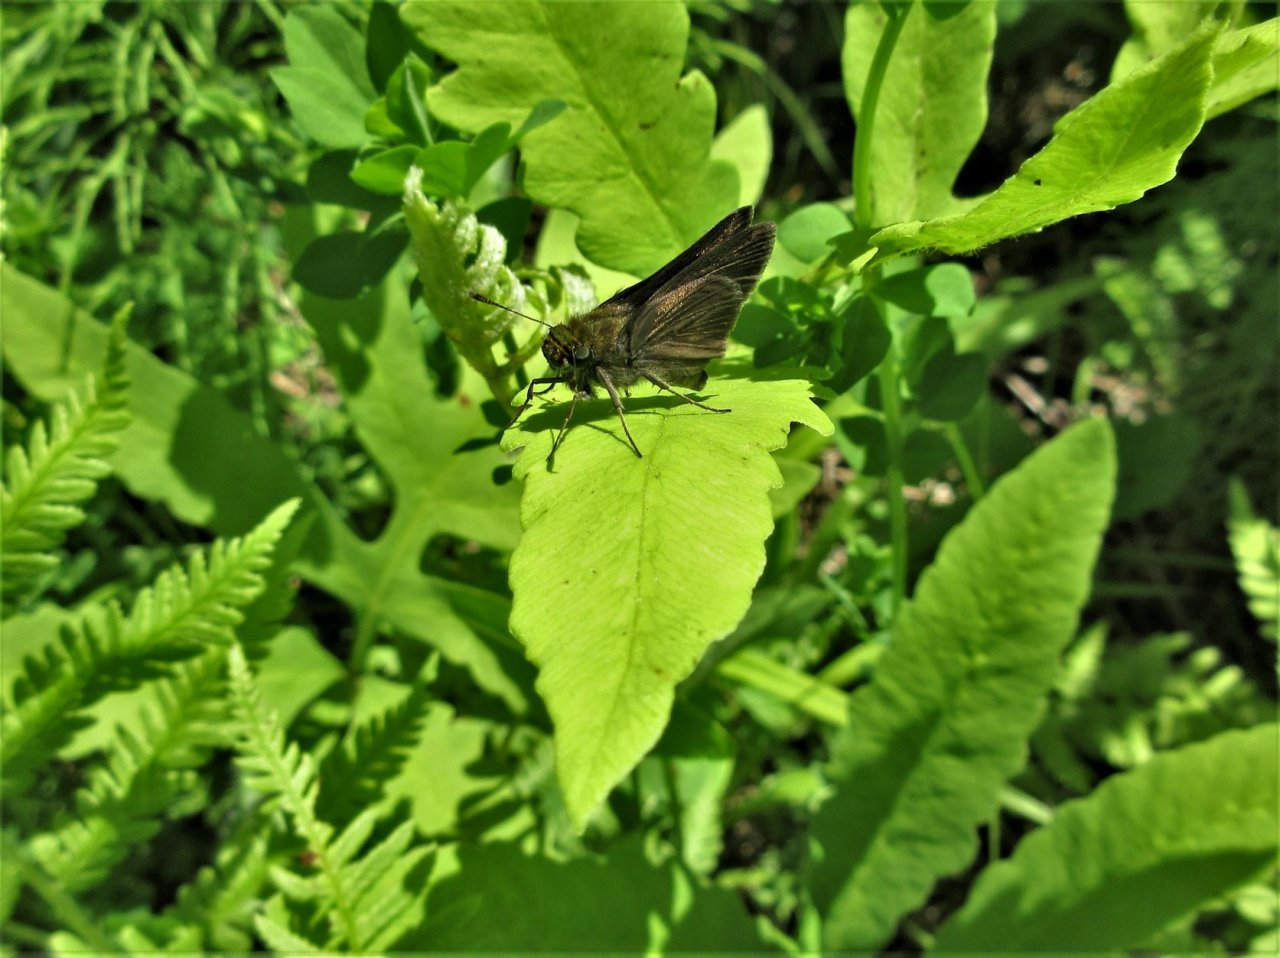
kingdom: Animalia
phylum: Arthropoda
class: Insecta
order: Lepidoptera
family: Hesperiidae
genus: Euphyes
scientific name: Euphyes vestris
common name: Dun Skipper
